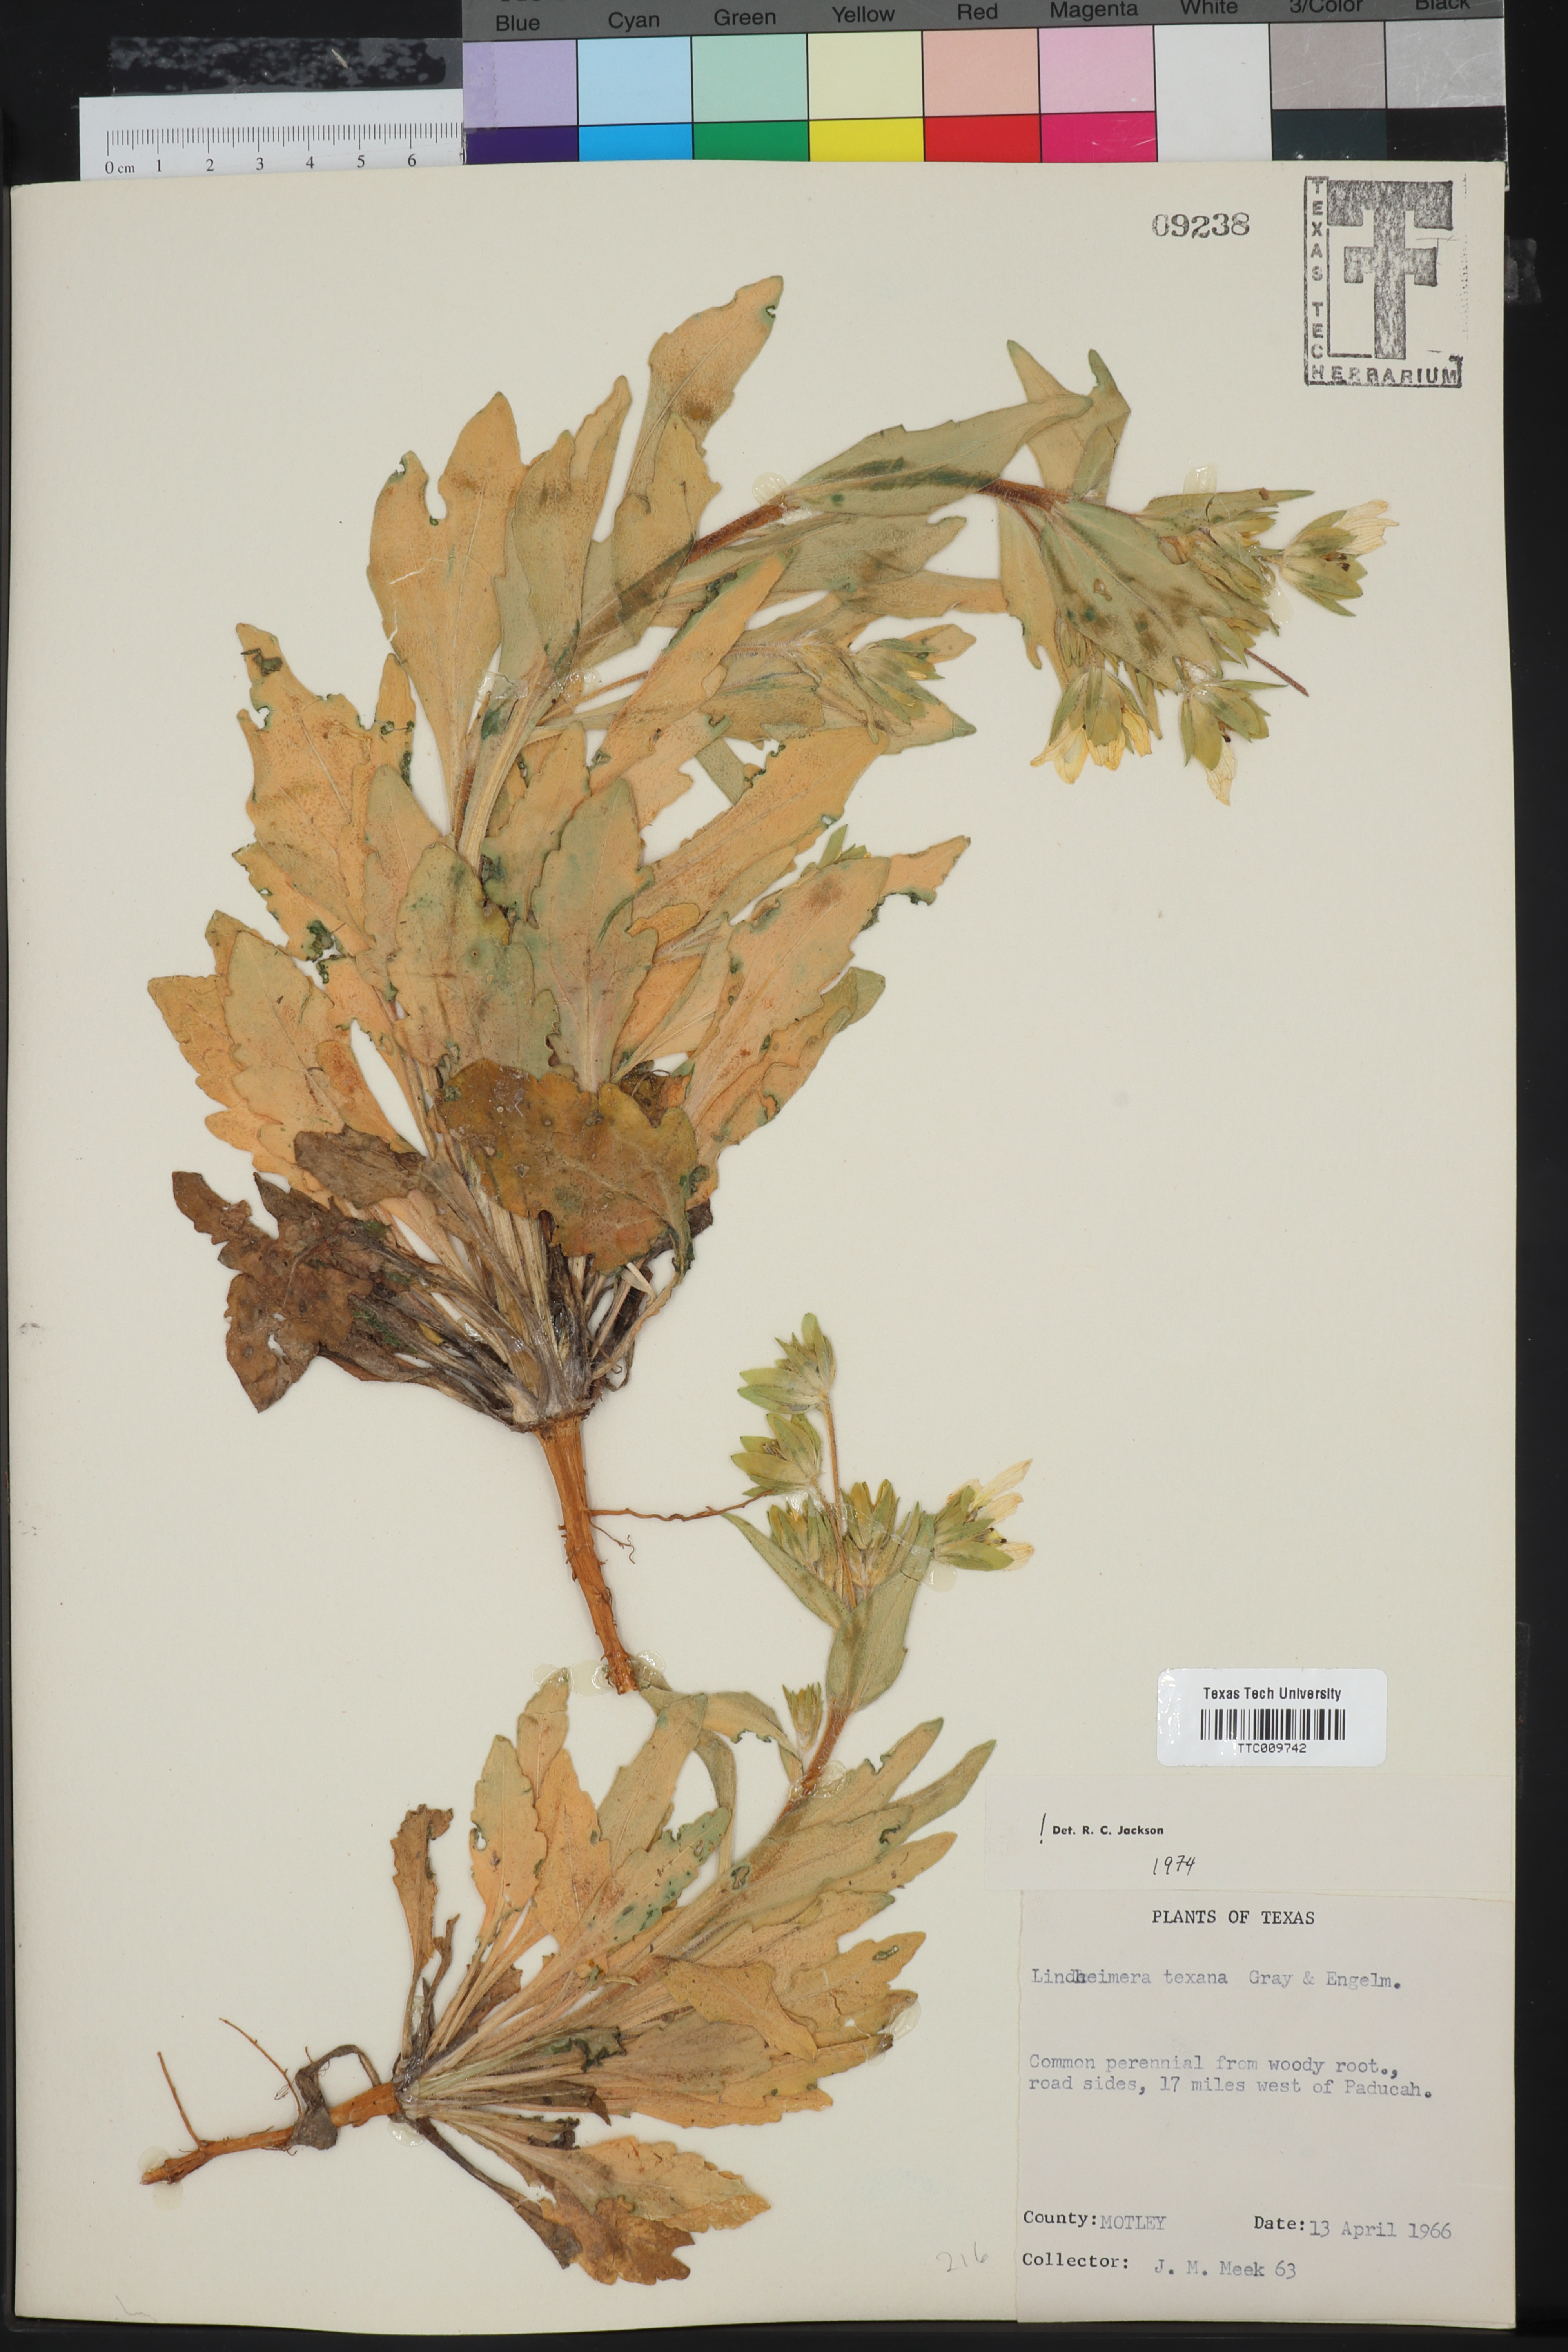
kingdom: Plantae
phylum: Tracheophyta
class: Magnoliopsida
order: Asterales
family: Asteraceae
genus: Lindheimera
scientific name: Lindheimera texana
